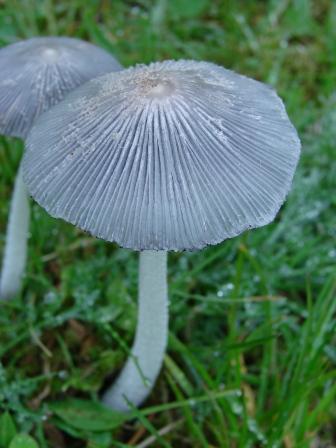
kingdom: Fungi
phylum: Basidiomycota
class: Agaricomycetes
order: Agaricales
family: Psathyrellaceae
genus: Coprinopsis
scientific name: Coprinopsis lagopus
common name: dunstokket blækhat
